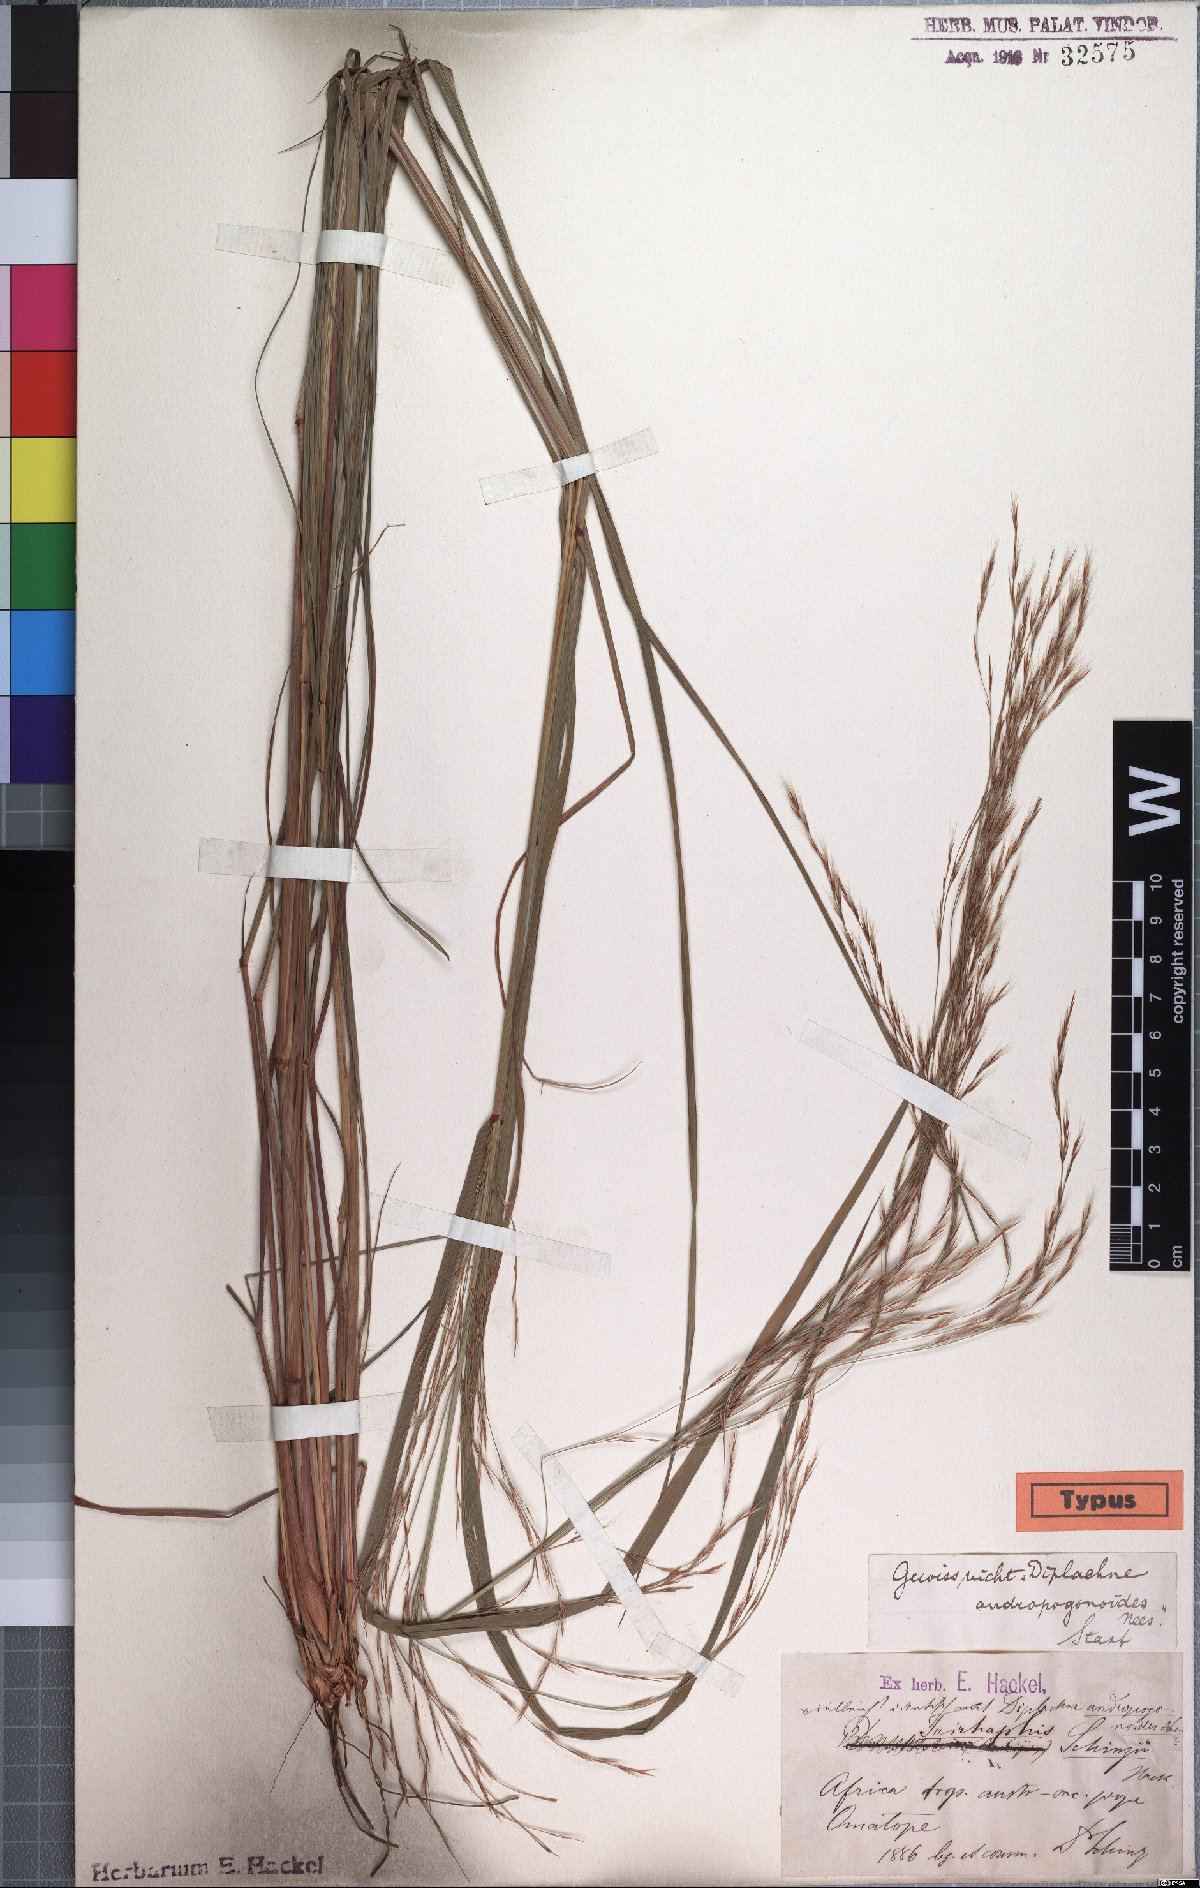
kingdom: Plantae
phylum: Tracheophyta
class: Liliopsida
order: Poales
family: Poaceae
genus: Triraphis
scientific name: Triraphis schinzii
